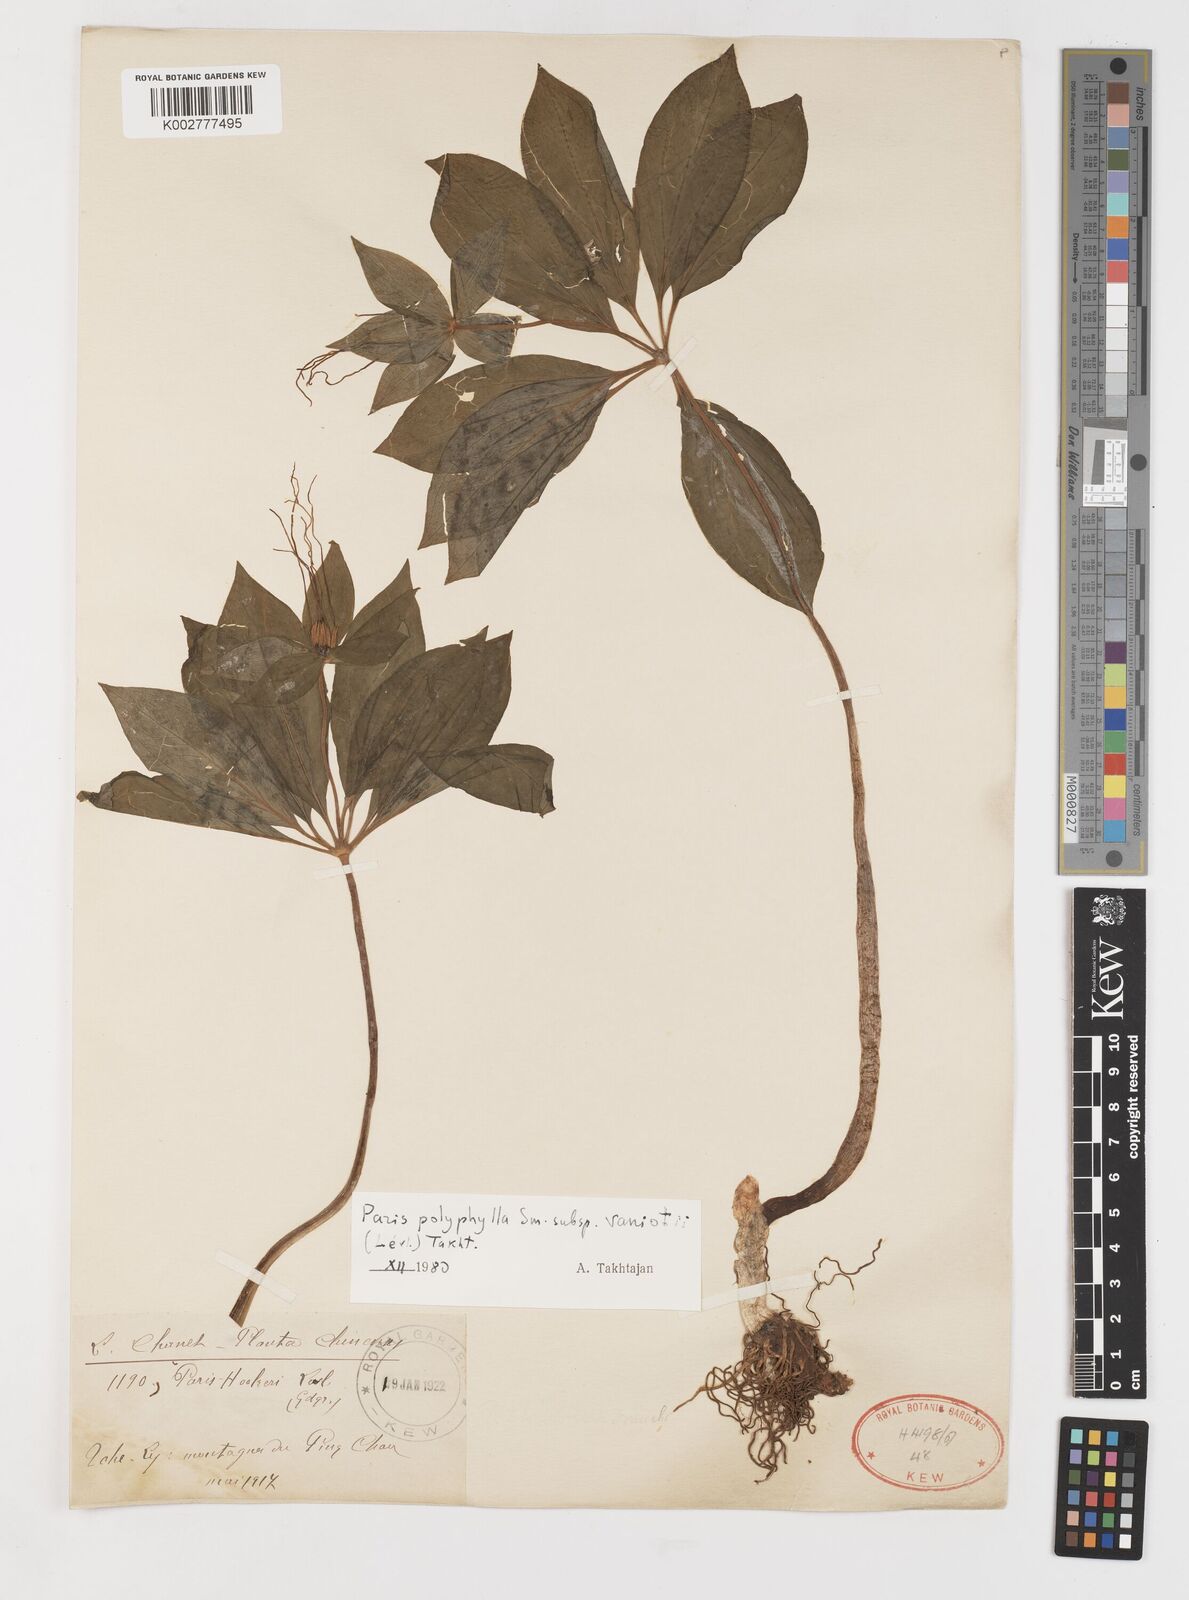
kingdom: Plantae
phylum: Tracheophyta
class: Liliopsida
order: Liliales
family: Melanthiaceae
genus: Paris
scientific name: Paris delavayi
